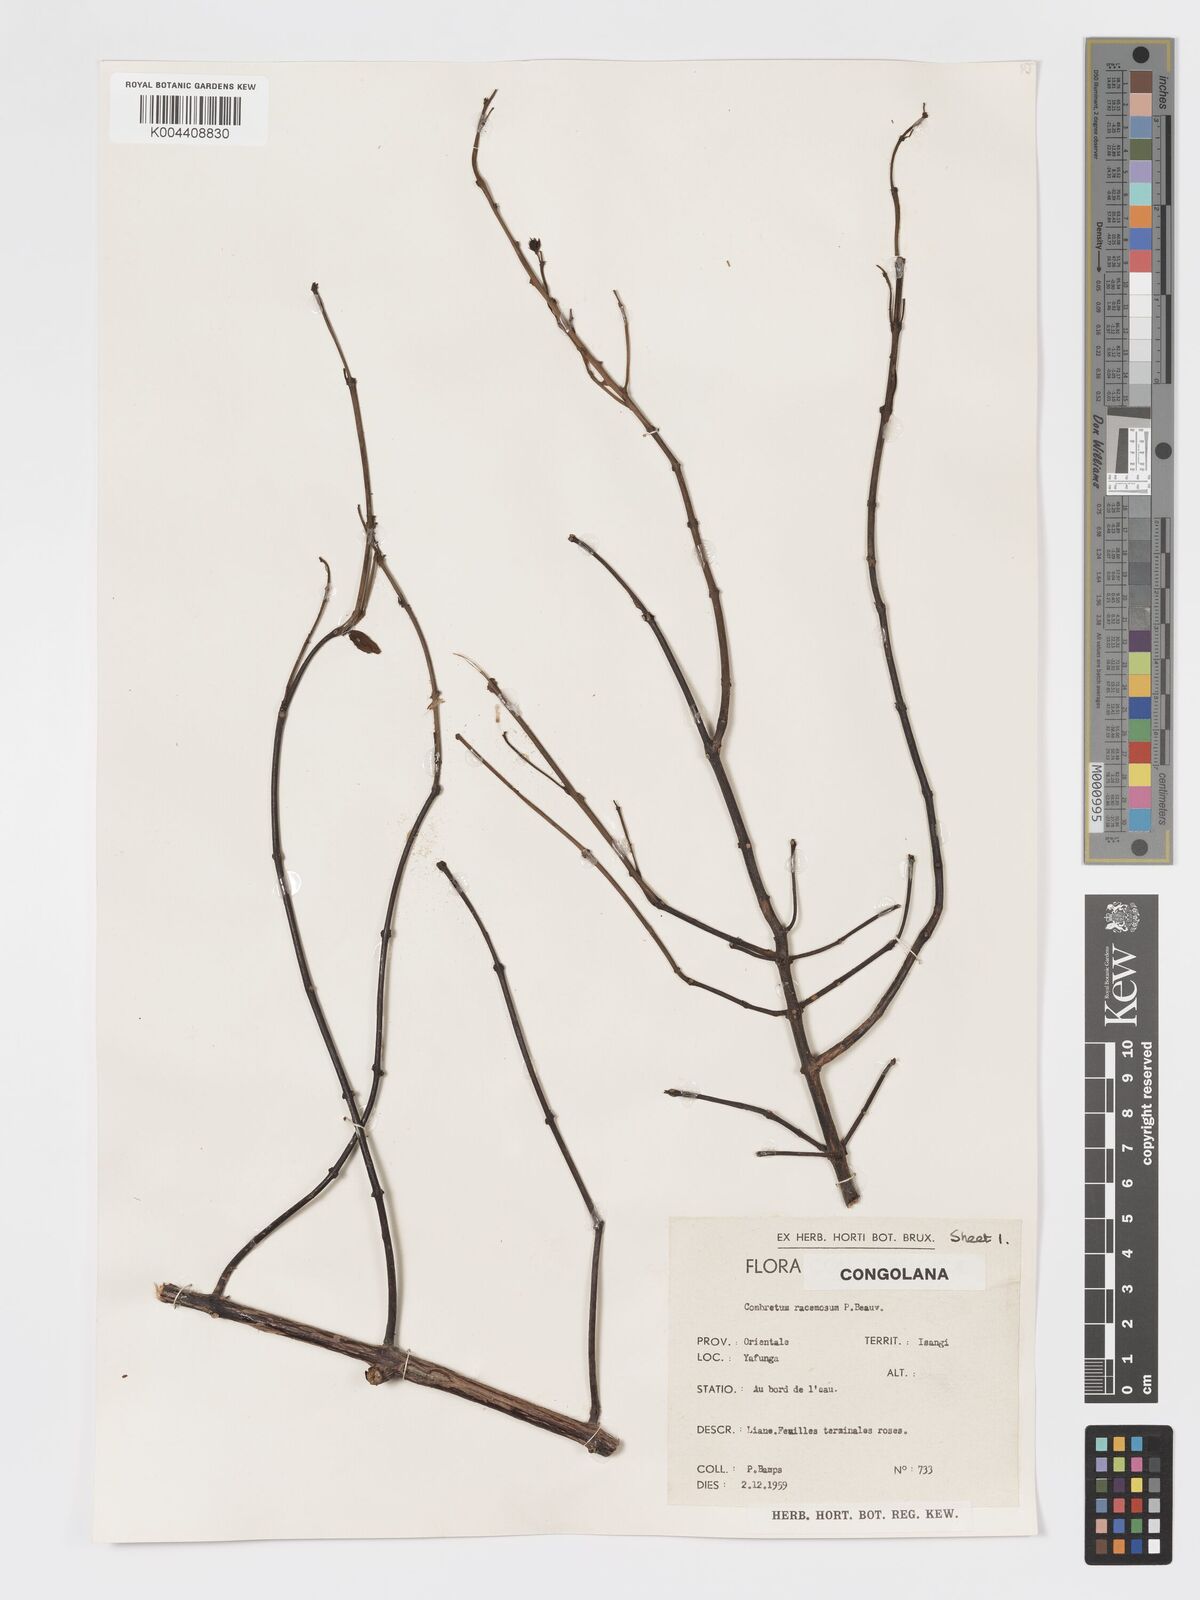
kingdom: Plantae
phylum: Tracheophyta
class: Magnoliopsida
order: Myrtales
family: Combretaceae
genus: Combretum
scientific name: Combretum racemosum
